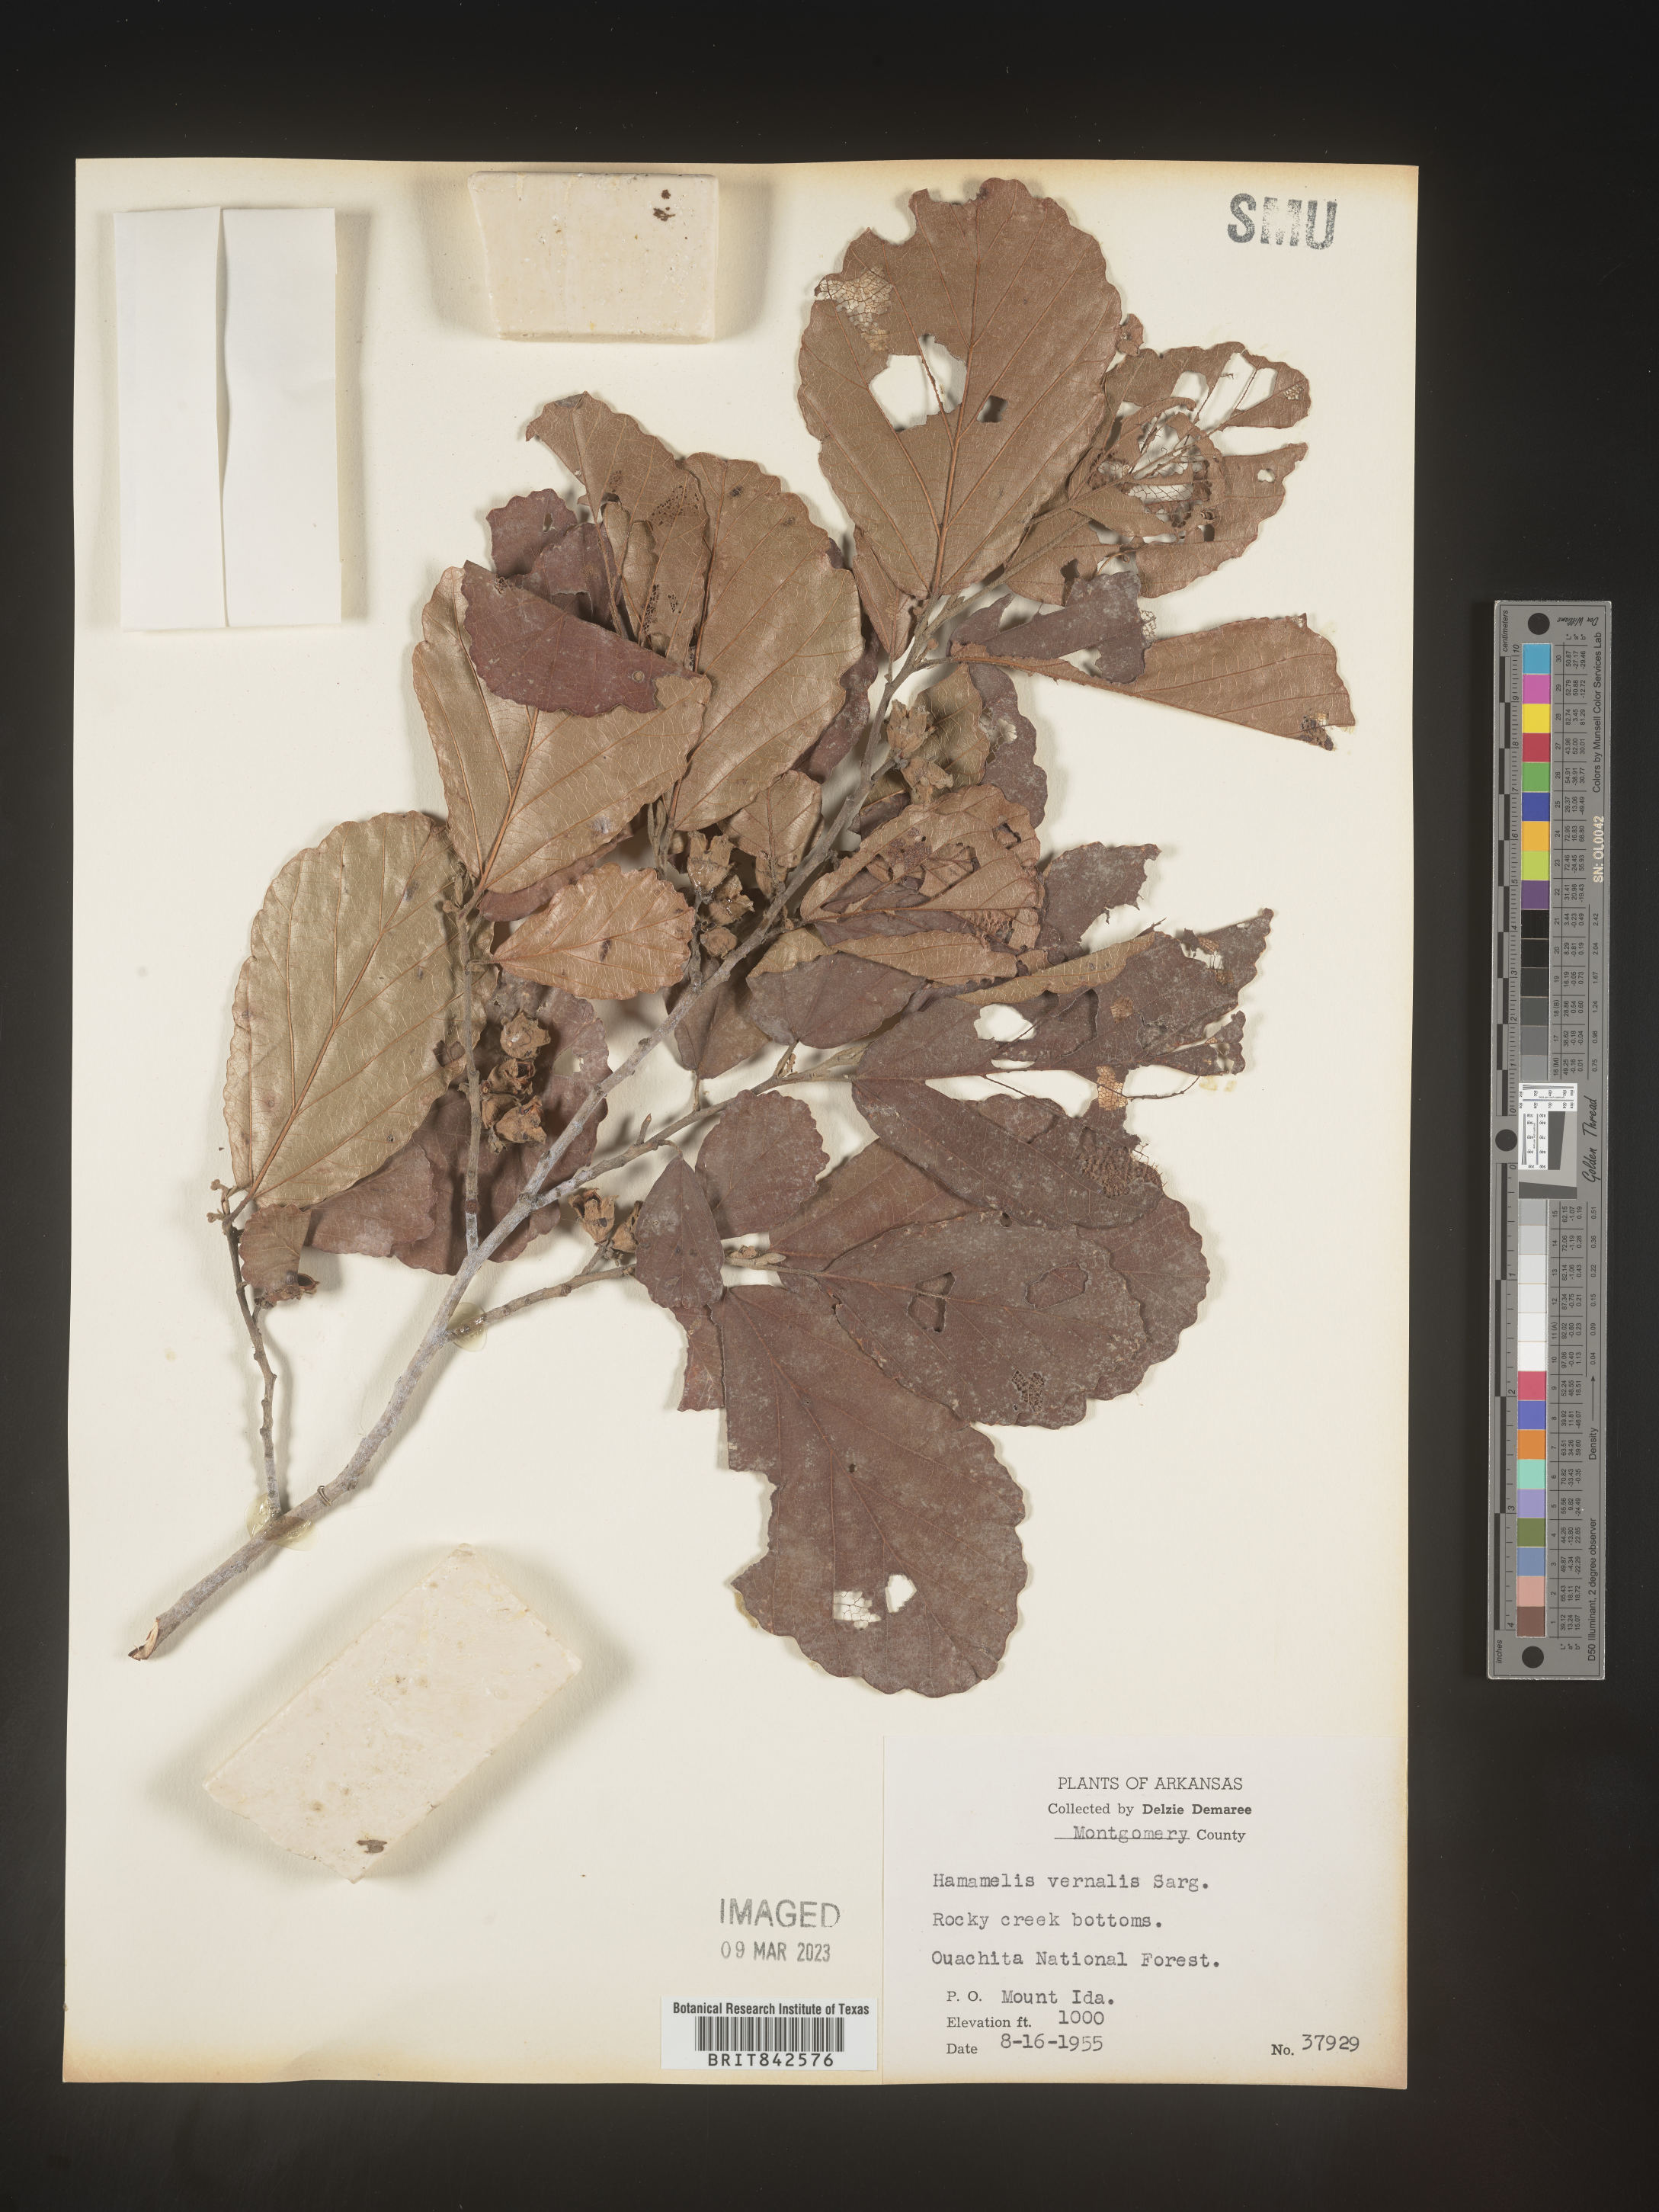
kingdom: Plantae
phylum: Tracheophyta
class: Magnoliopsida
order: Saxifragales
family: Hamamelidaceae
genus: Hamamelis
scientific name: Hamamelis vernalis
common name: Ozark witch-hazel
